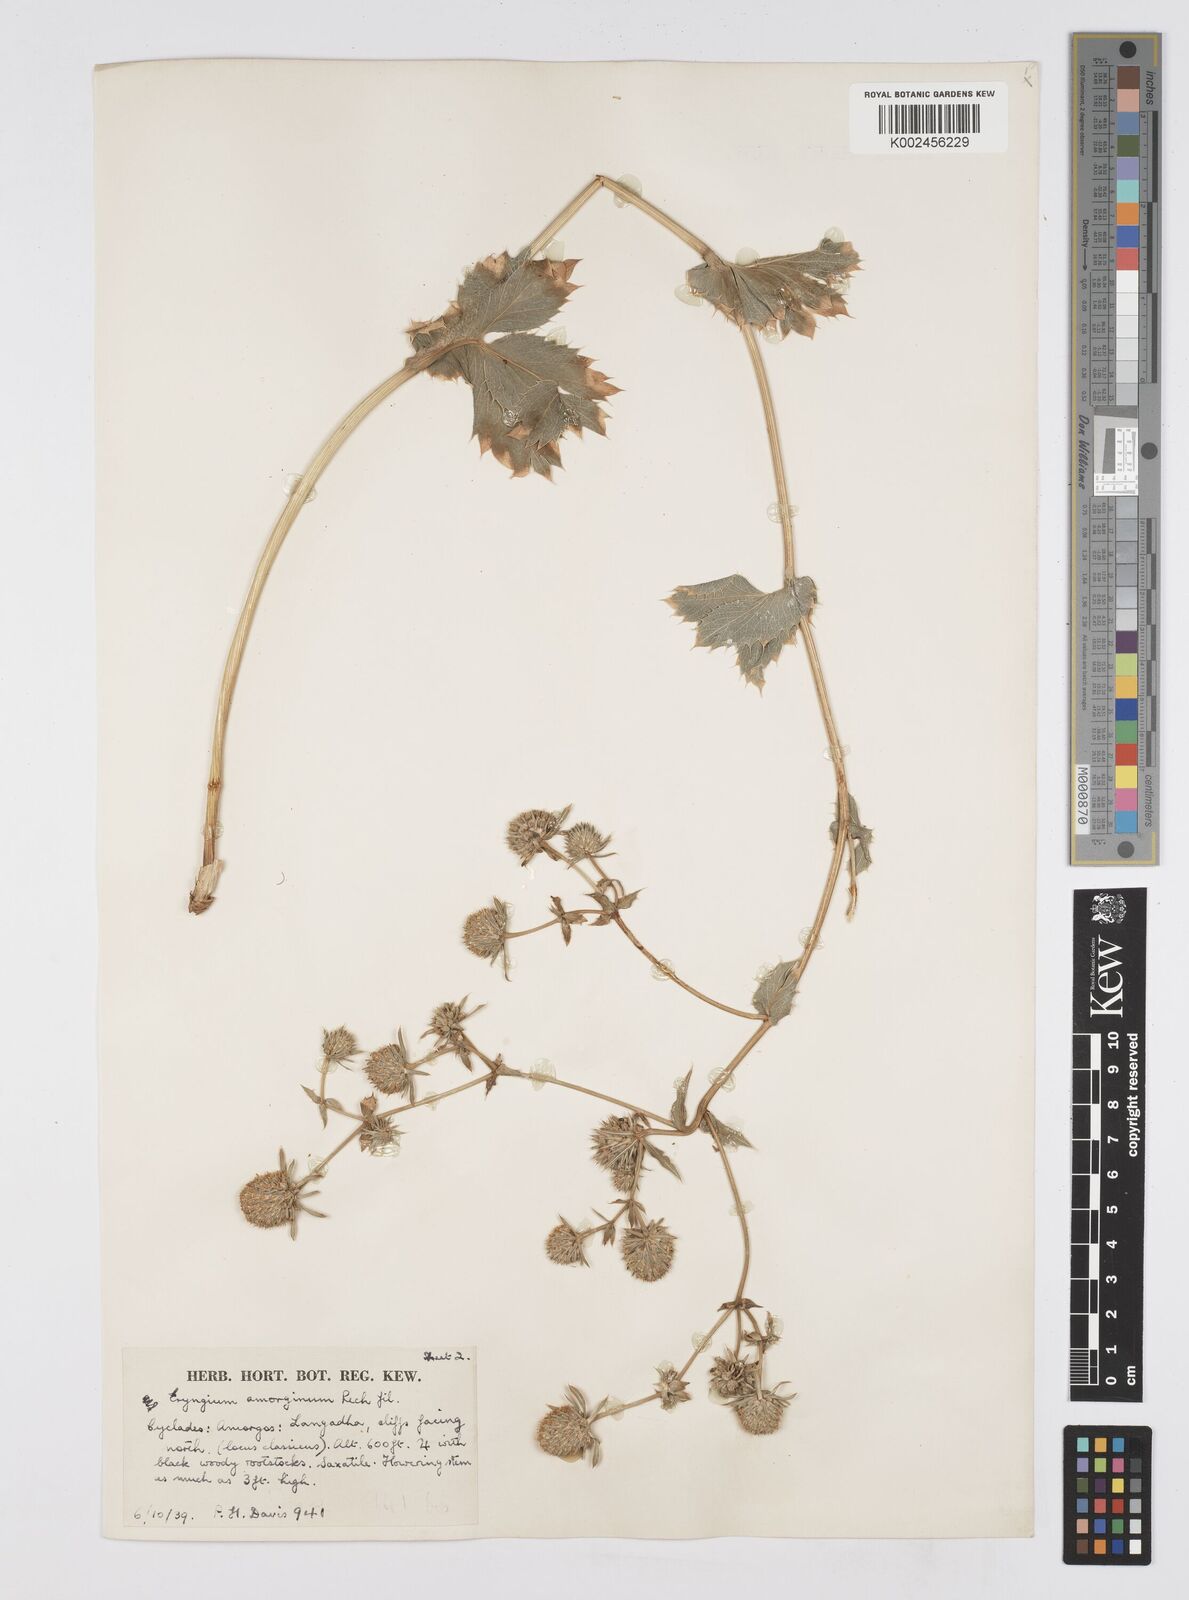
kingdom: Plantae
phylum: Tracheophyta
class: Magnoliopsida
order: Apiales
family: Apiaceae
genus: Eryngium
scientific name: Eryngium amorginum
